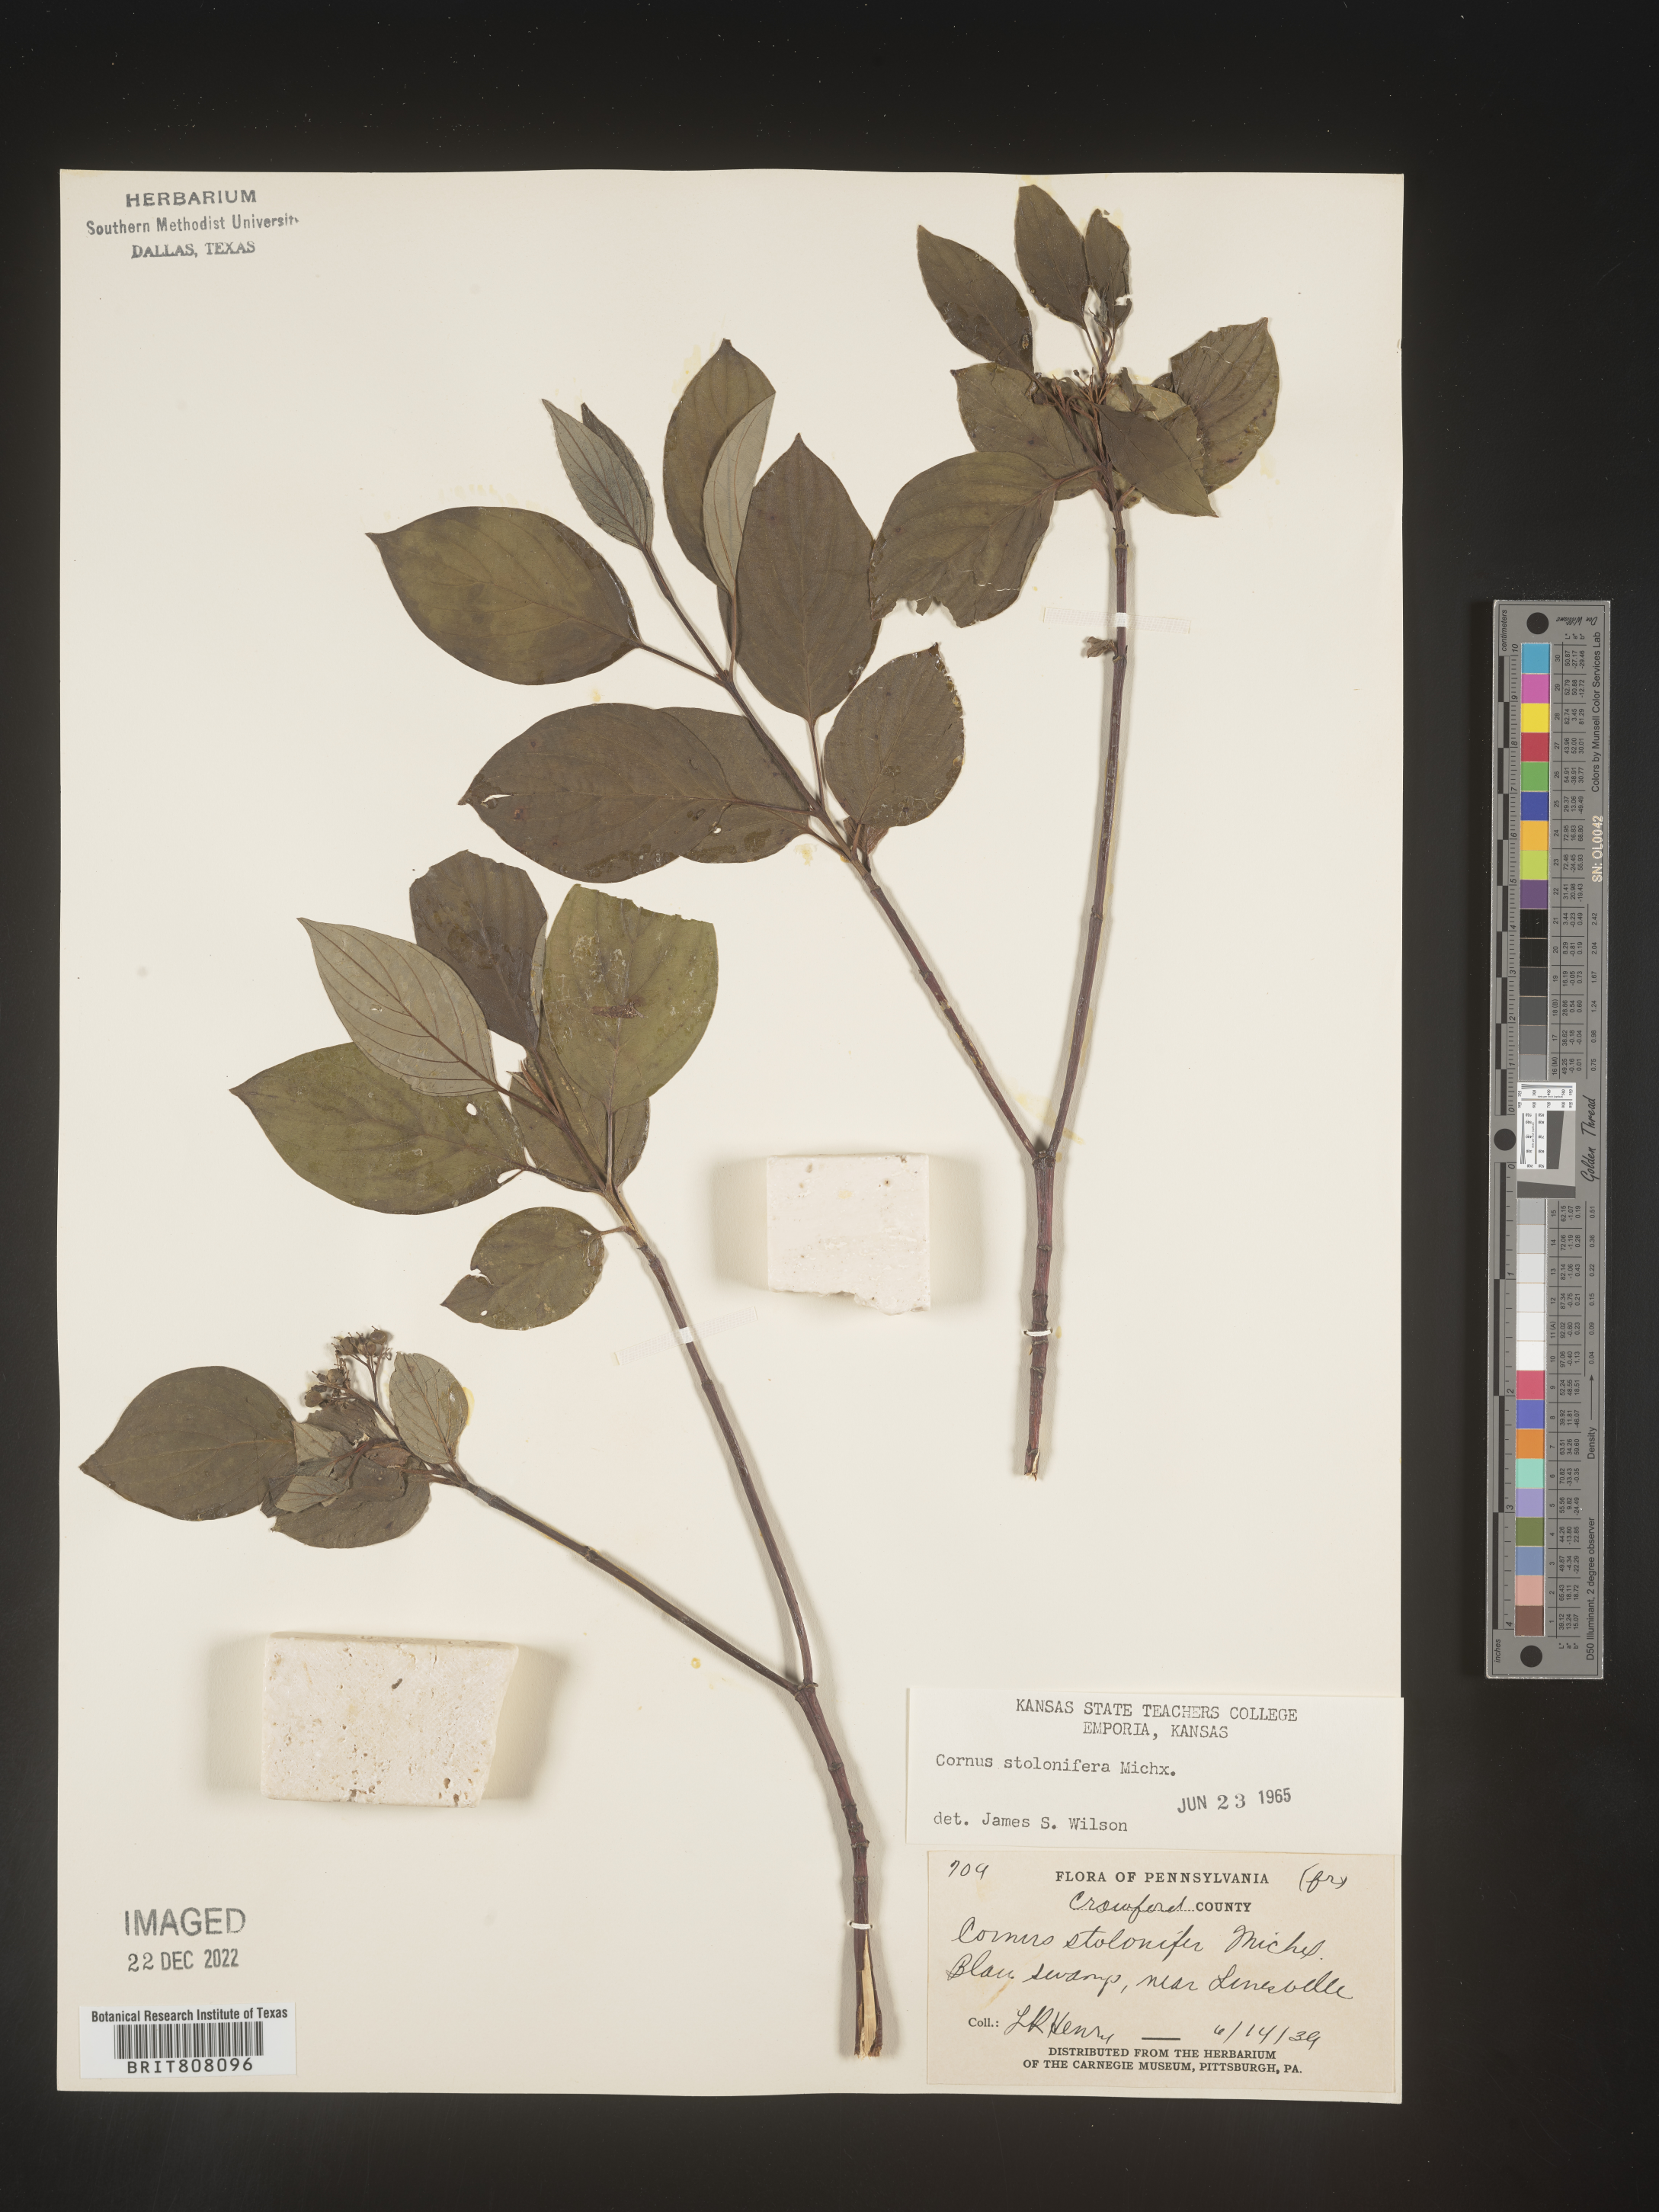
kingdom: Plantae
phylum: Tracheophyta
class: Magnoliopsida
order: Cornales
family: Cornaceae
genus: Cornus
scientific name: Cornus sericea
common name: Red-osier dogwood
